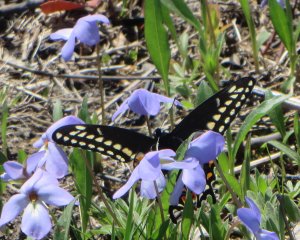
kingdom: Animalia
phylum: Arthropoda
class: Insecta
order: Lepidoptera
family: Papilionidae
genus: Papilio
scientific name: Papilio polyxenes
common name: Black Swallowtail
